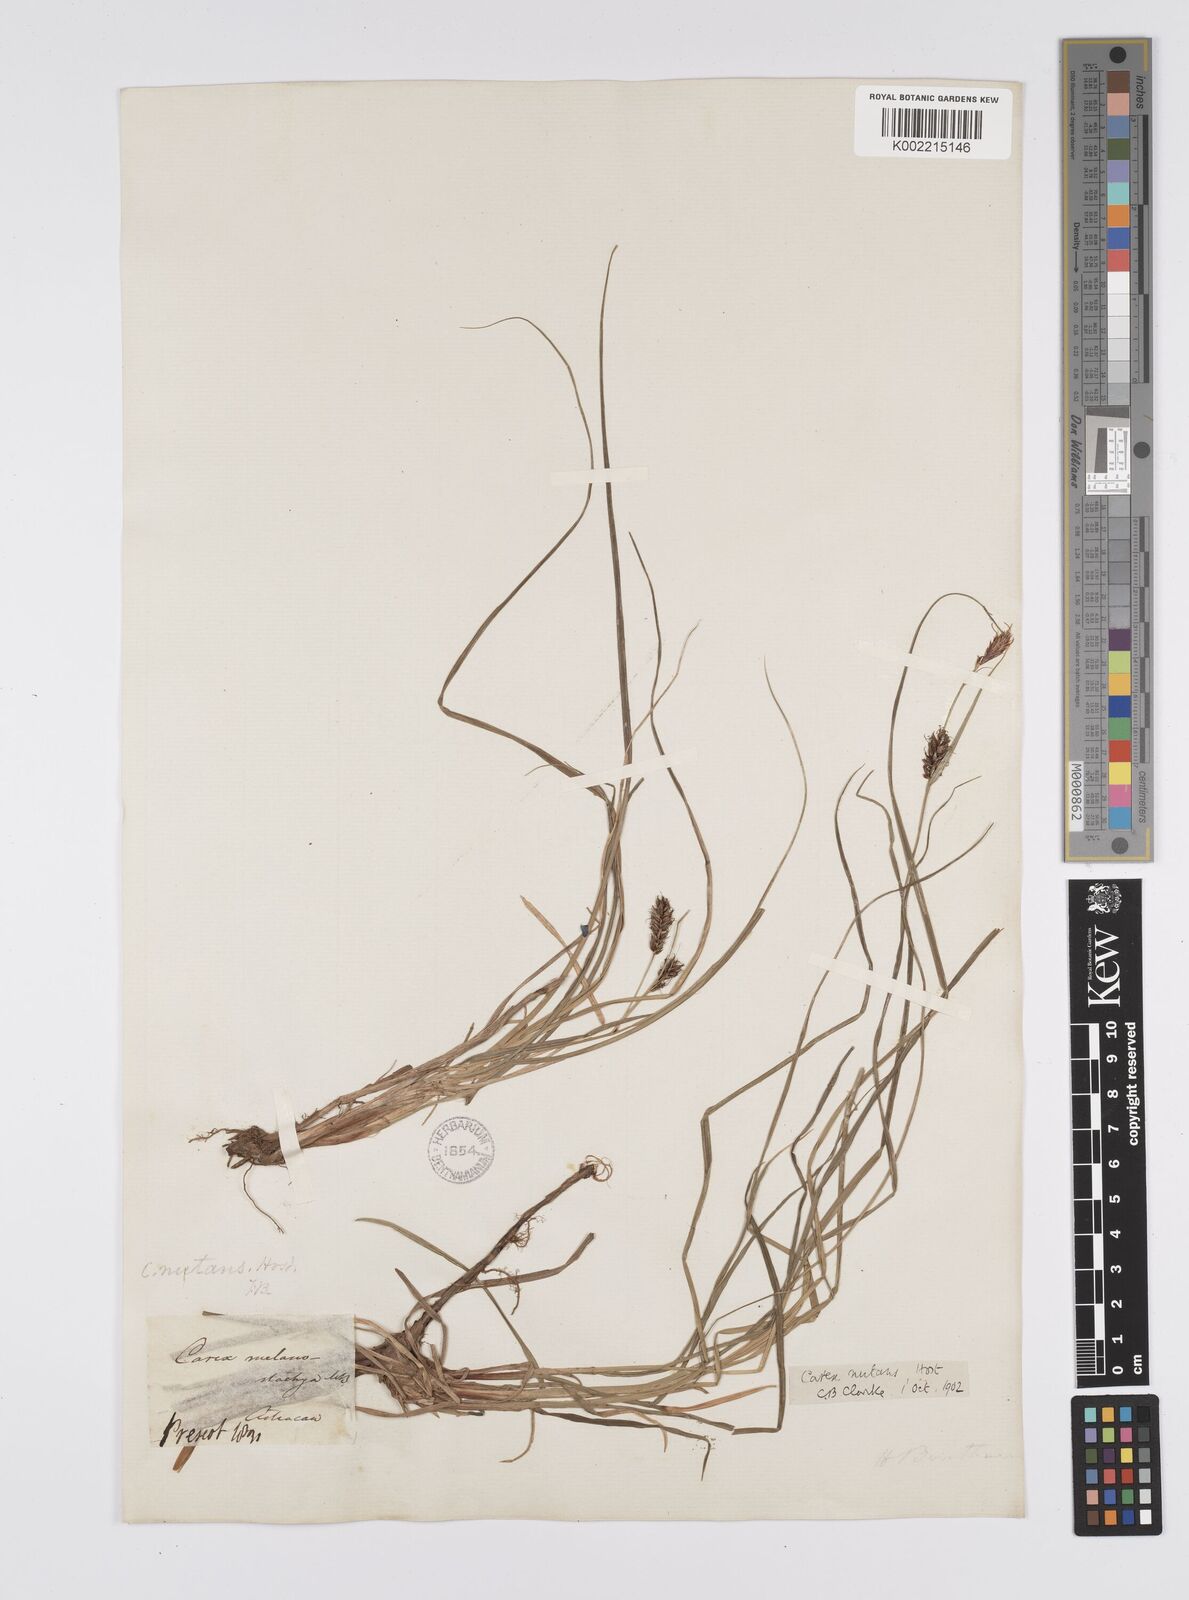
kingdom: Plantae
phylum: Tracheophyta
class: Liliopsida
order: Poales
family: Cyperaceae
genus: Carex
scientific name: Carex melanostachya
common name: Black-spiked sedge
